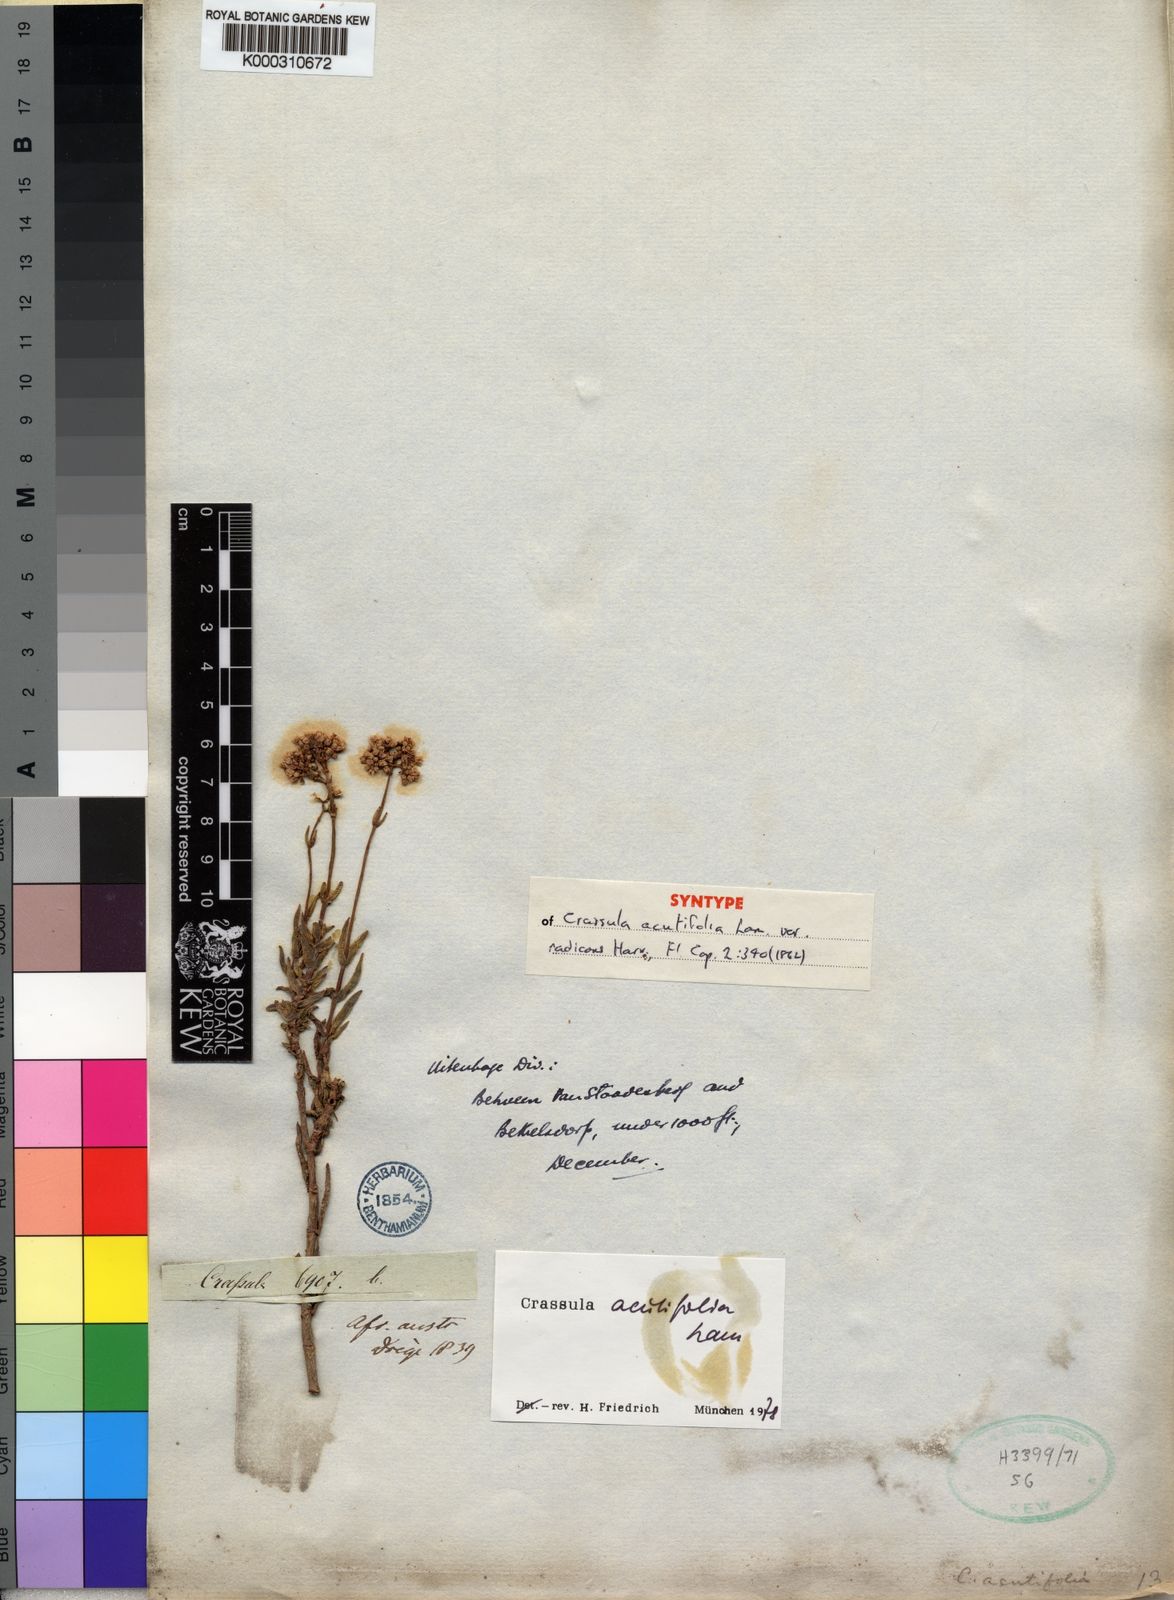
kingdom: Plantae
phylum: Tracheophyta
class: Magnoliopsida
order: Saxifragales
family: Crassulaceae
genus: Crassula
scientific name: Crassula tetragona
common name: Pygmyweed
